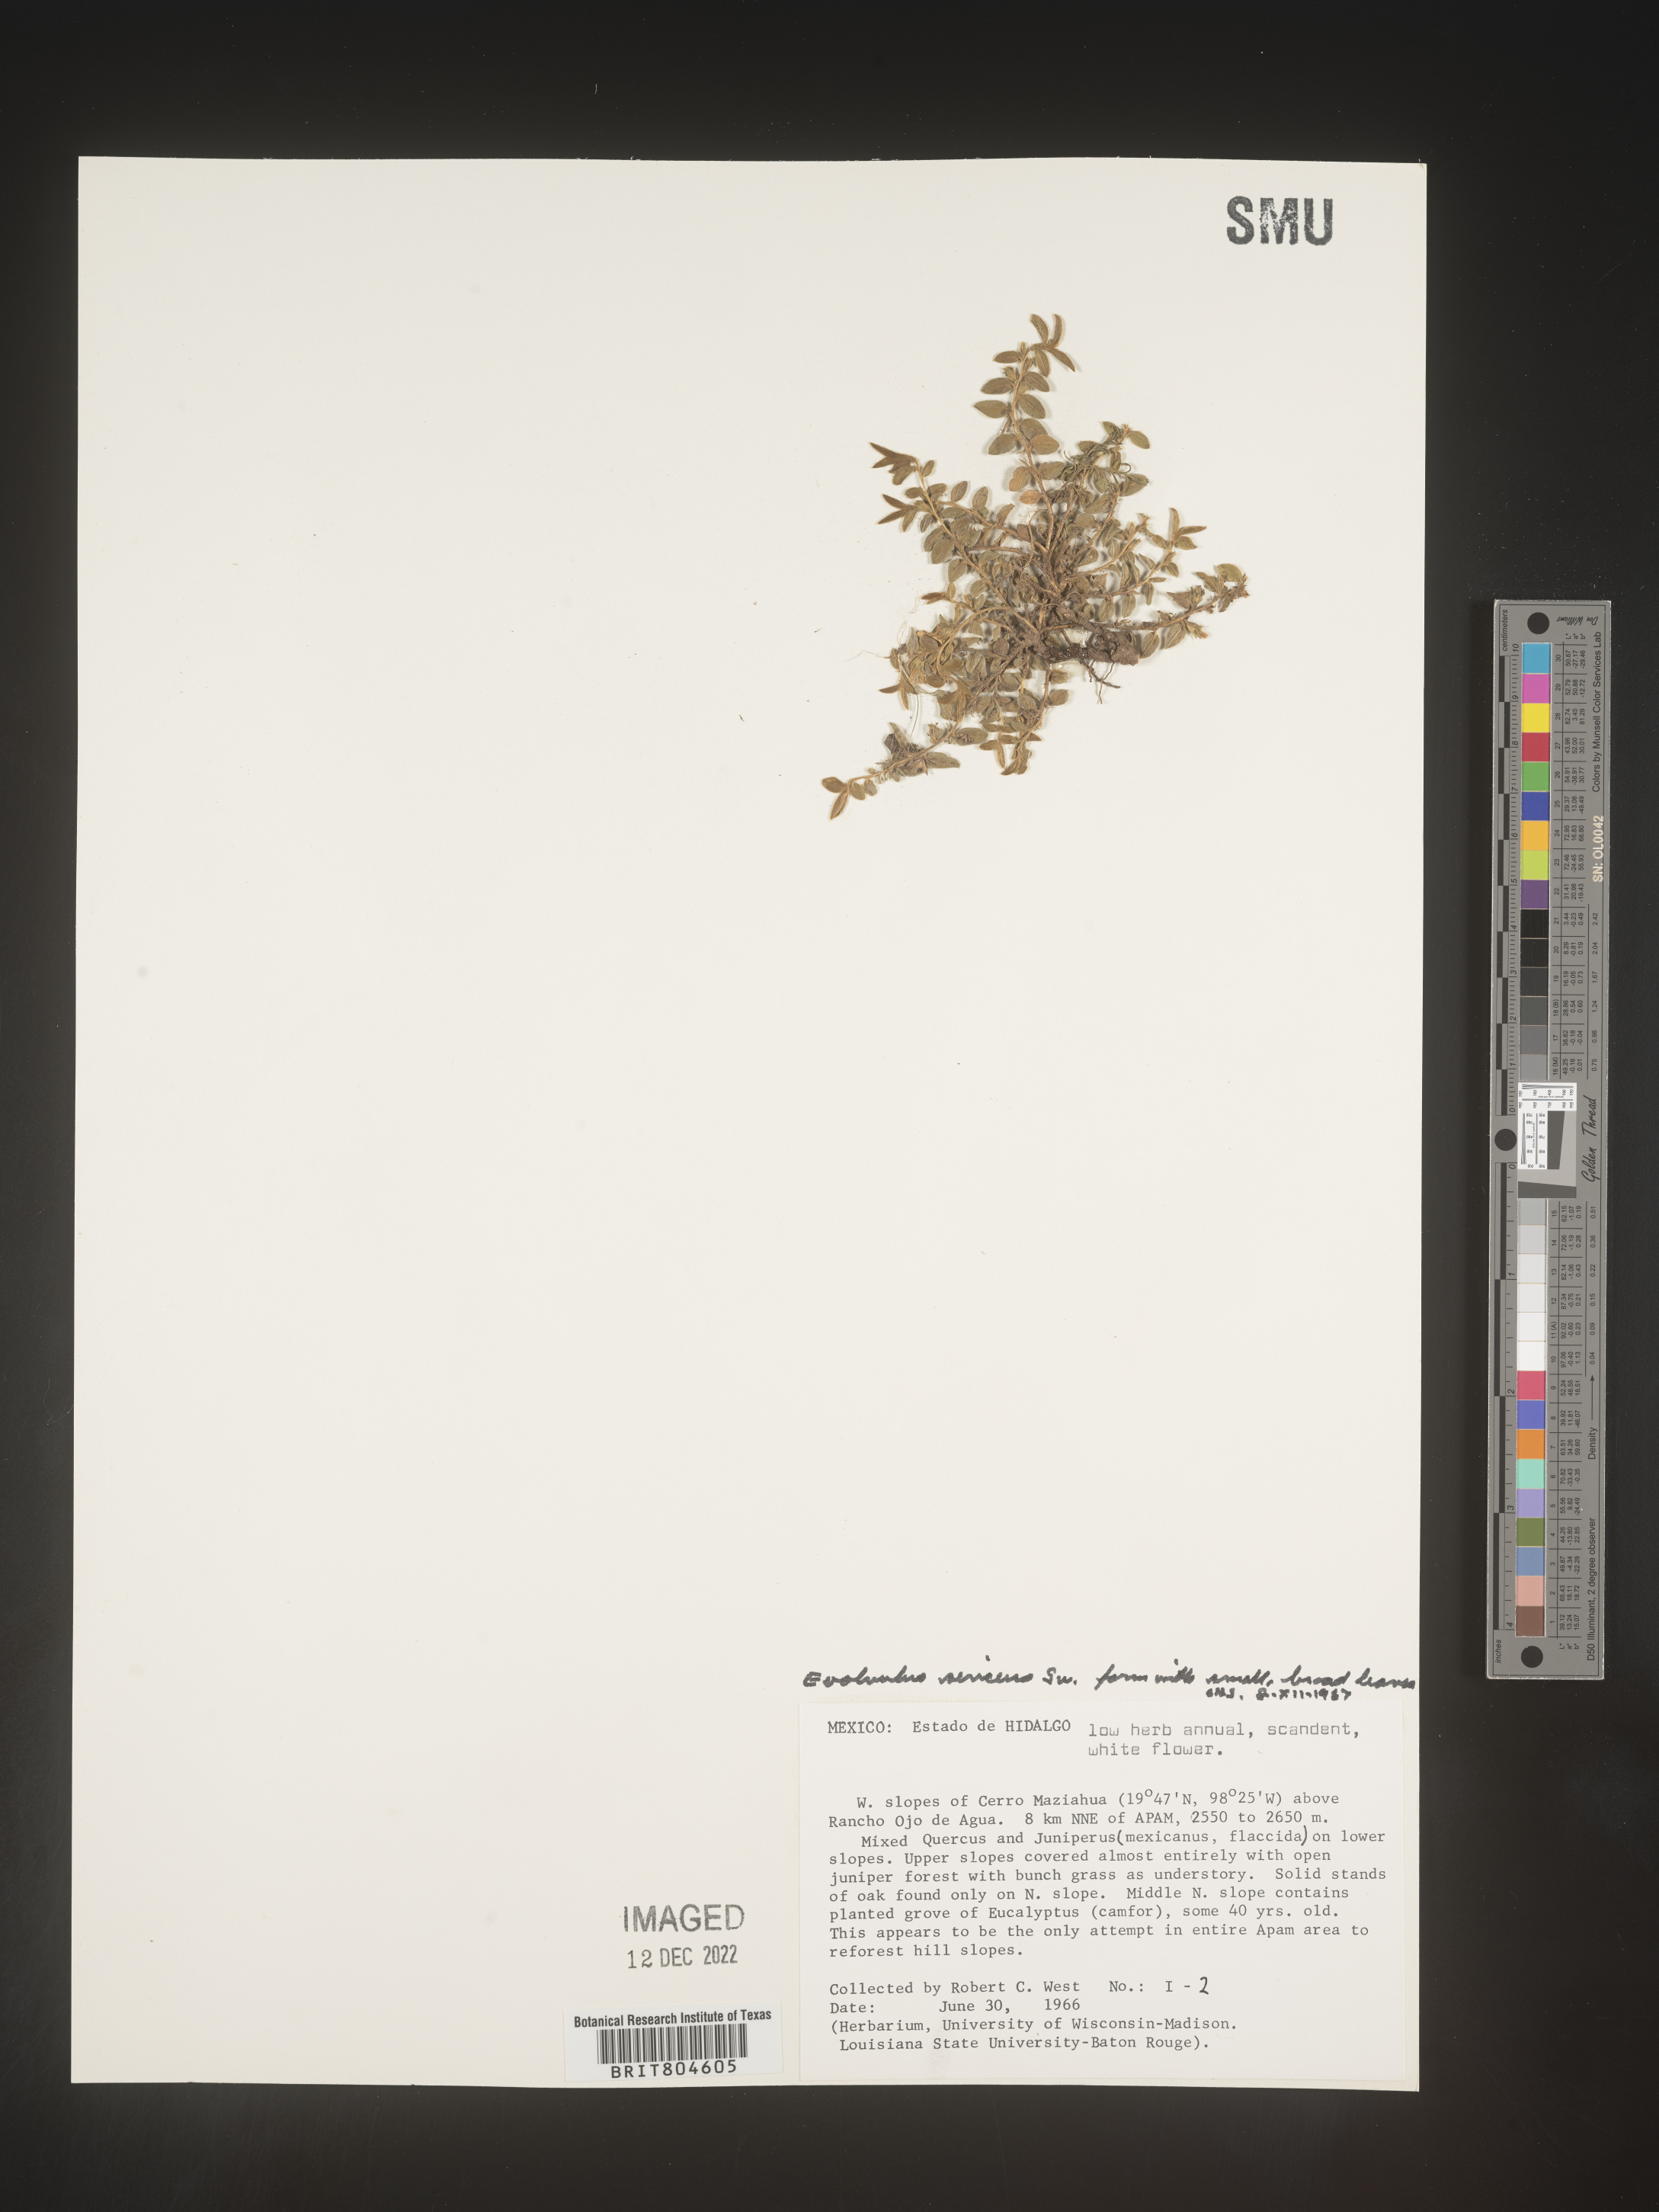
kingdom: Plantae
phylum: Tracheophyta
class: Magnoliopsida
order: Solanales
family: Convolvulaceae
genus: Evolvulus
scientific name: Evolvulus
